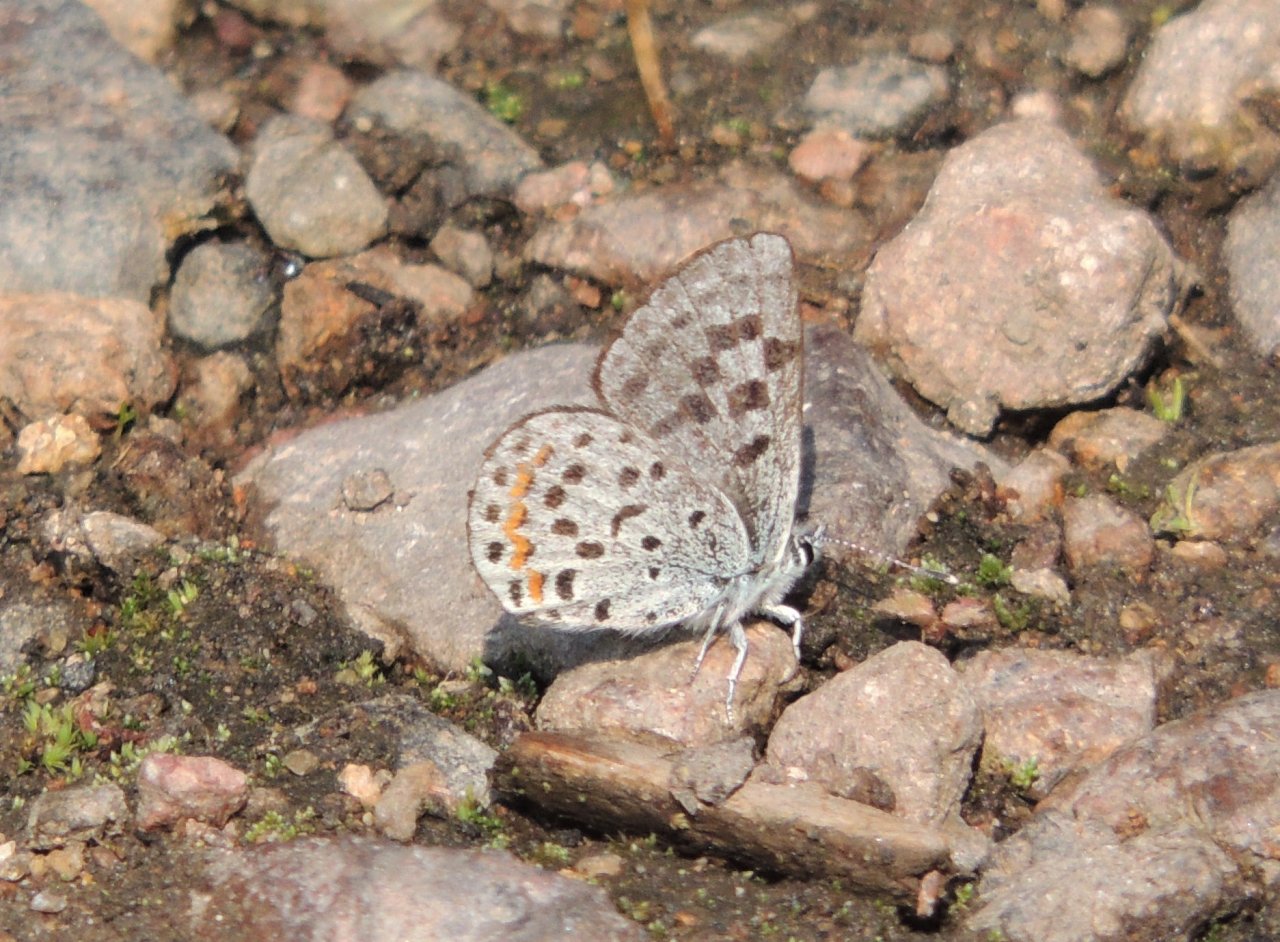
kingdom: Animalia
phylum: Arthropoda
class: Insecta
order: Lepidoptera
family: Lycaenidae
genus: Euphilotes
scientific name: Euphilotes battoides
